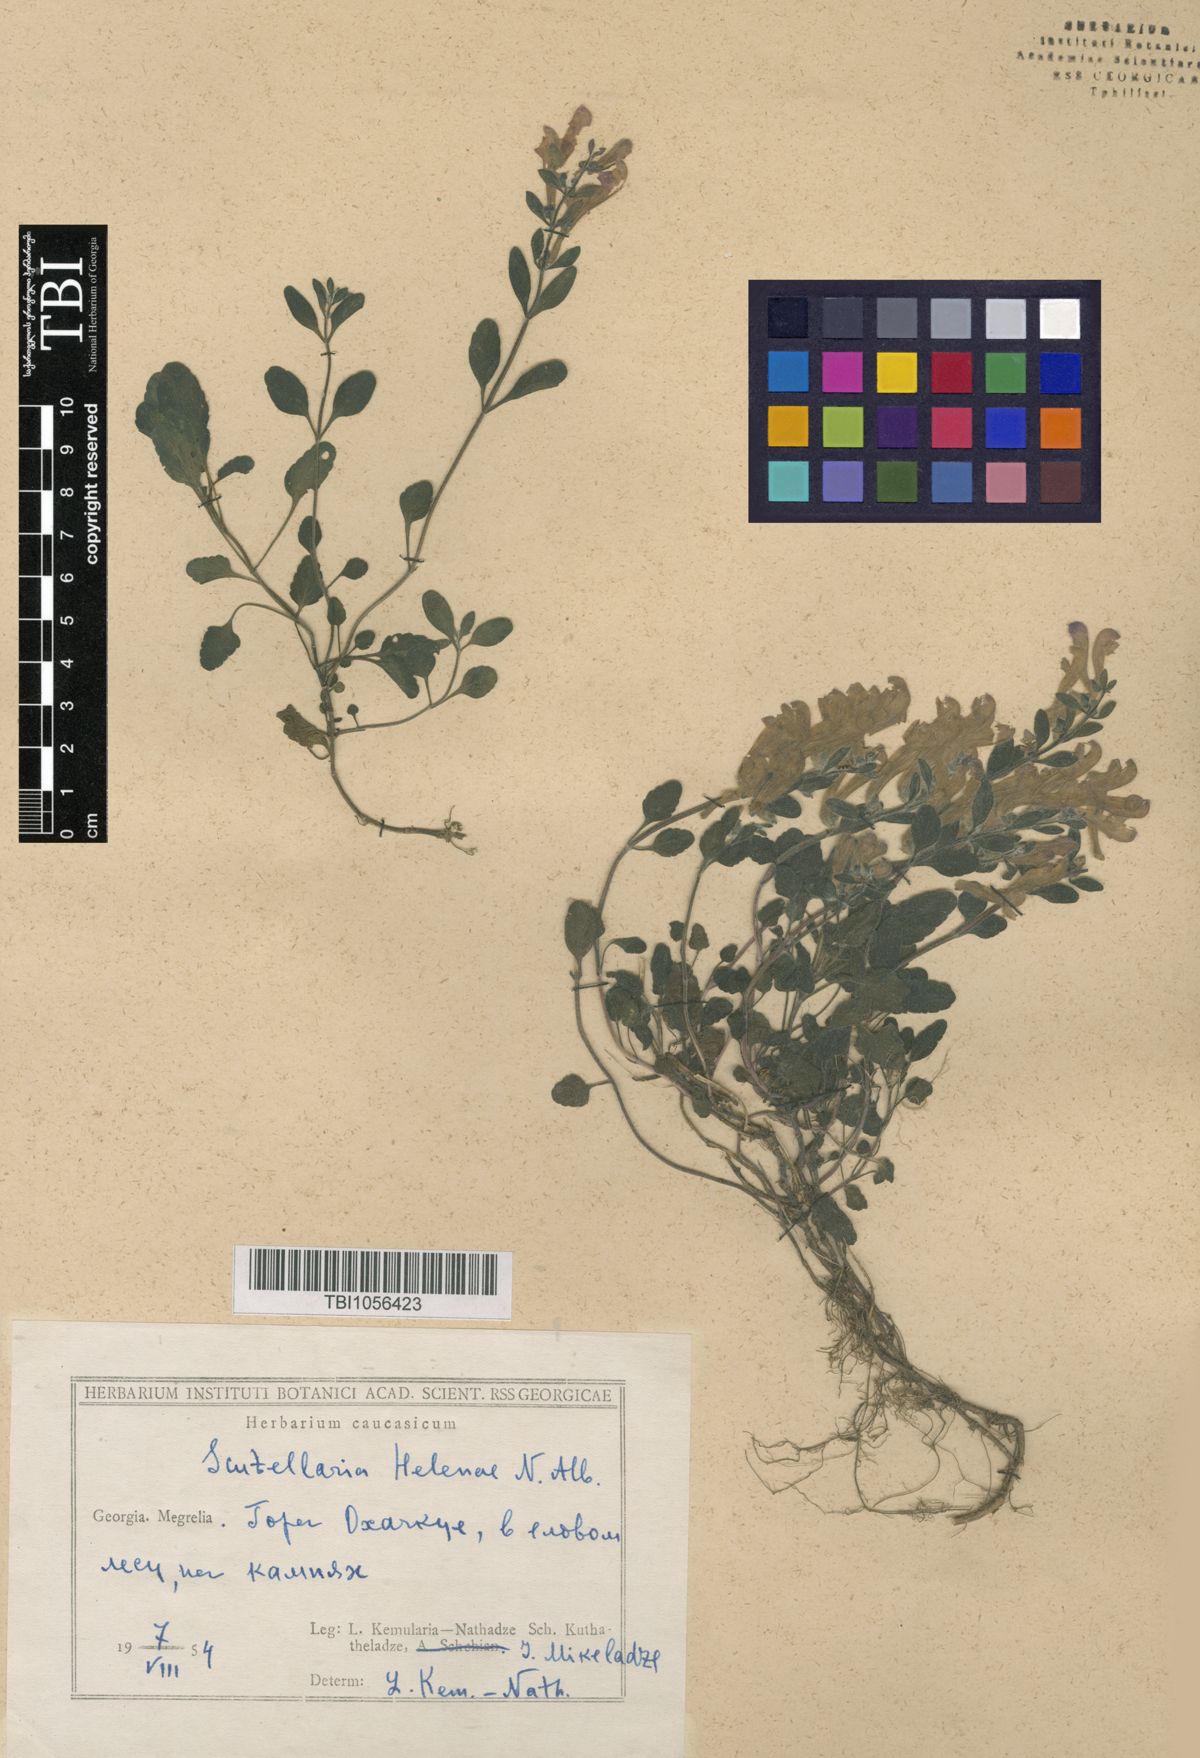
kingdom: Plantae
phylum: Tracheophyta
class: Magnoliopsida
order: Lamiales
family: Lamiaceae
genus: Scutellaria
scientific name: Scutellaria helenae
